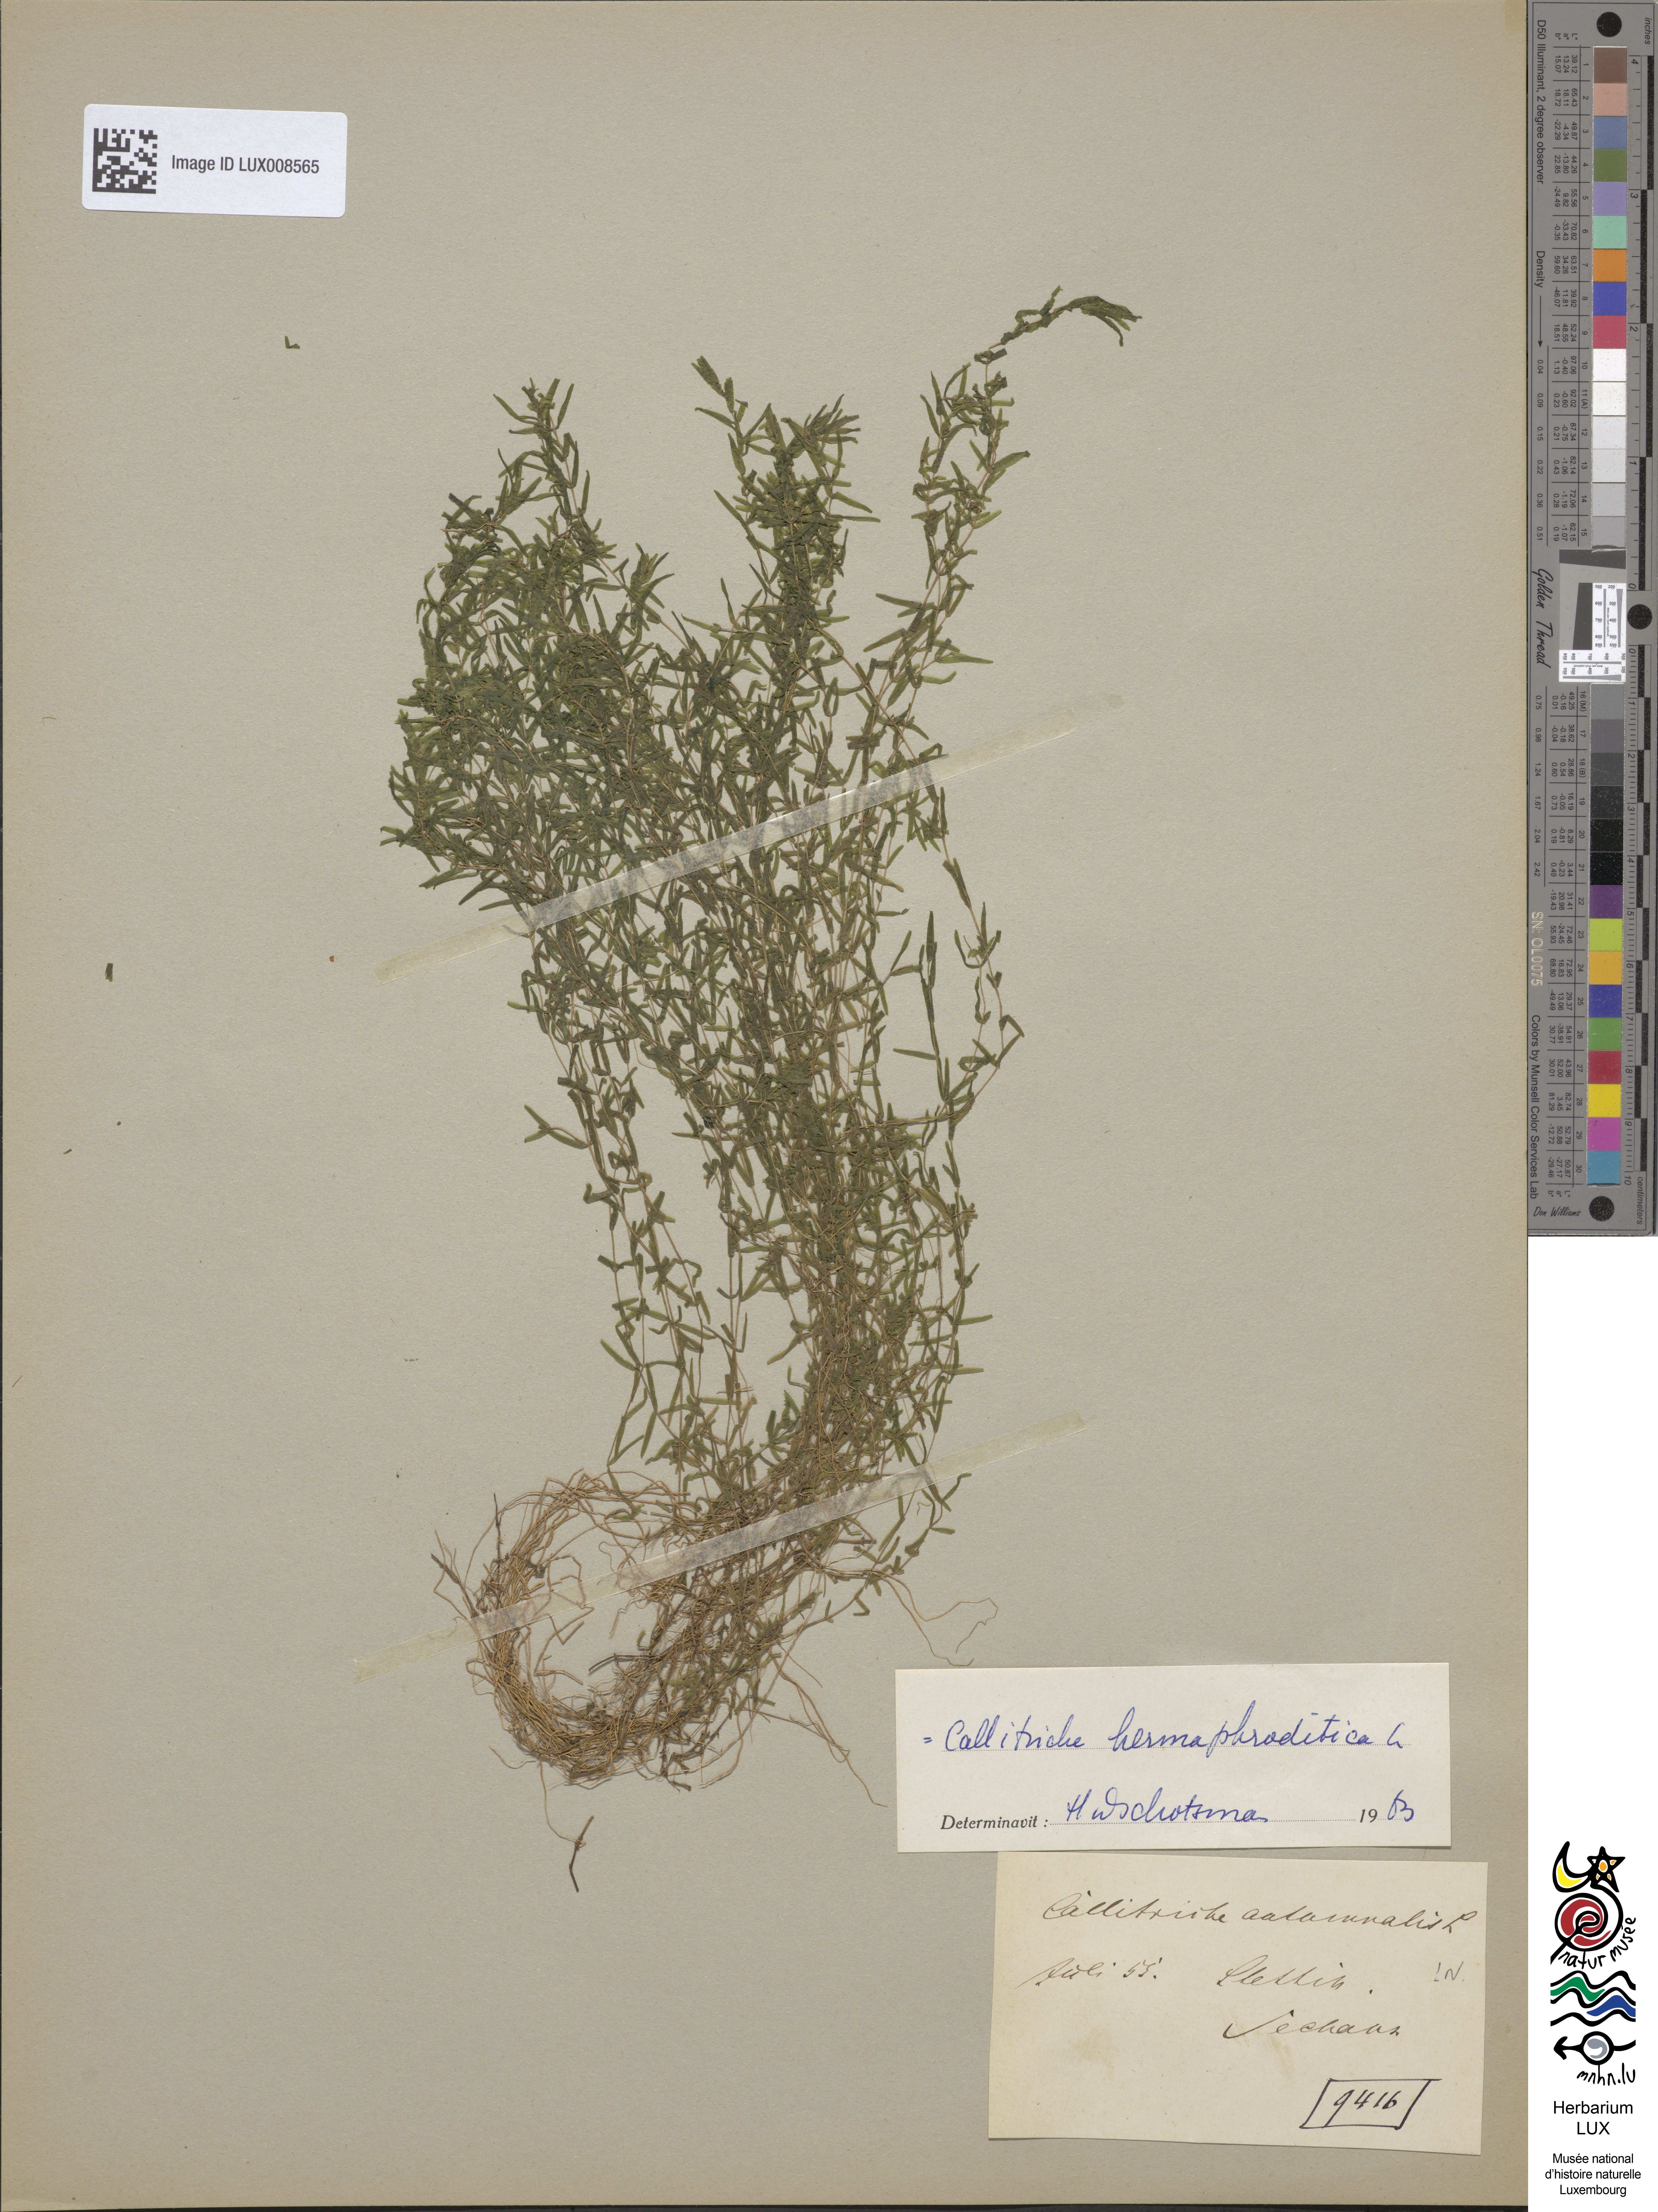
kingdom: Plantae
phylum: Tracheophyta
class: Magnoliopsida
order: Lamiales
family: Plantaginaceae
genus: Callitriche
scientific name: Callitriche hermaphroditica
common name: Autumnal water-starwort
